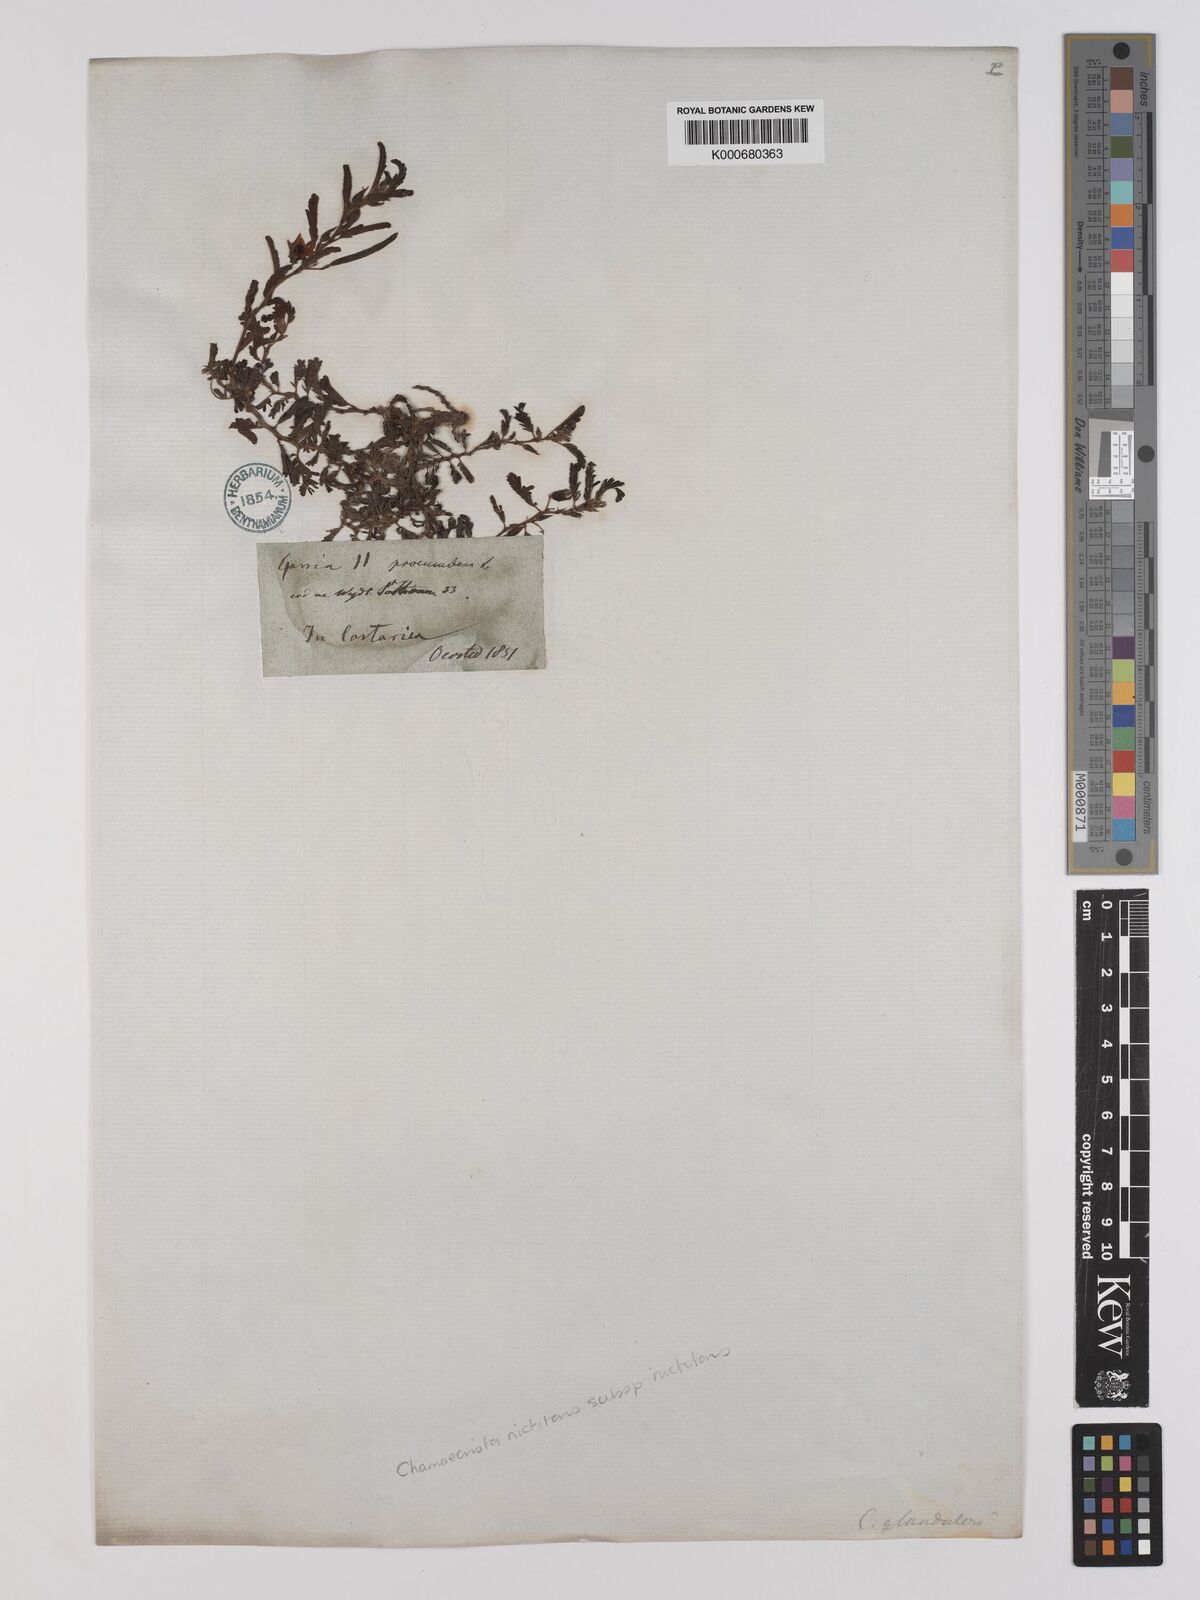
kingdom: Plantae
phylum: Tracheophyta
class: Magnoliopsida
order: Fabales
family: Fabaceae
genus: Chamaecrista
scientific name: Chamaecrista nictitans
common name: Sensitive cassia
